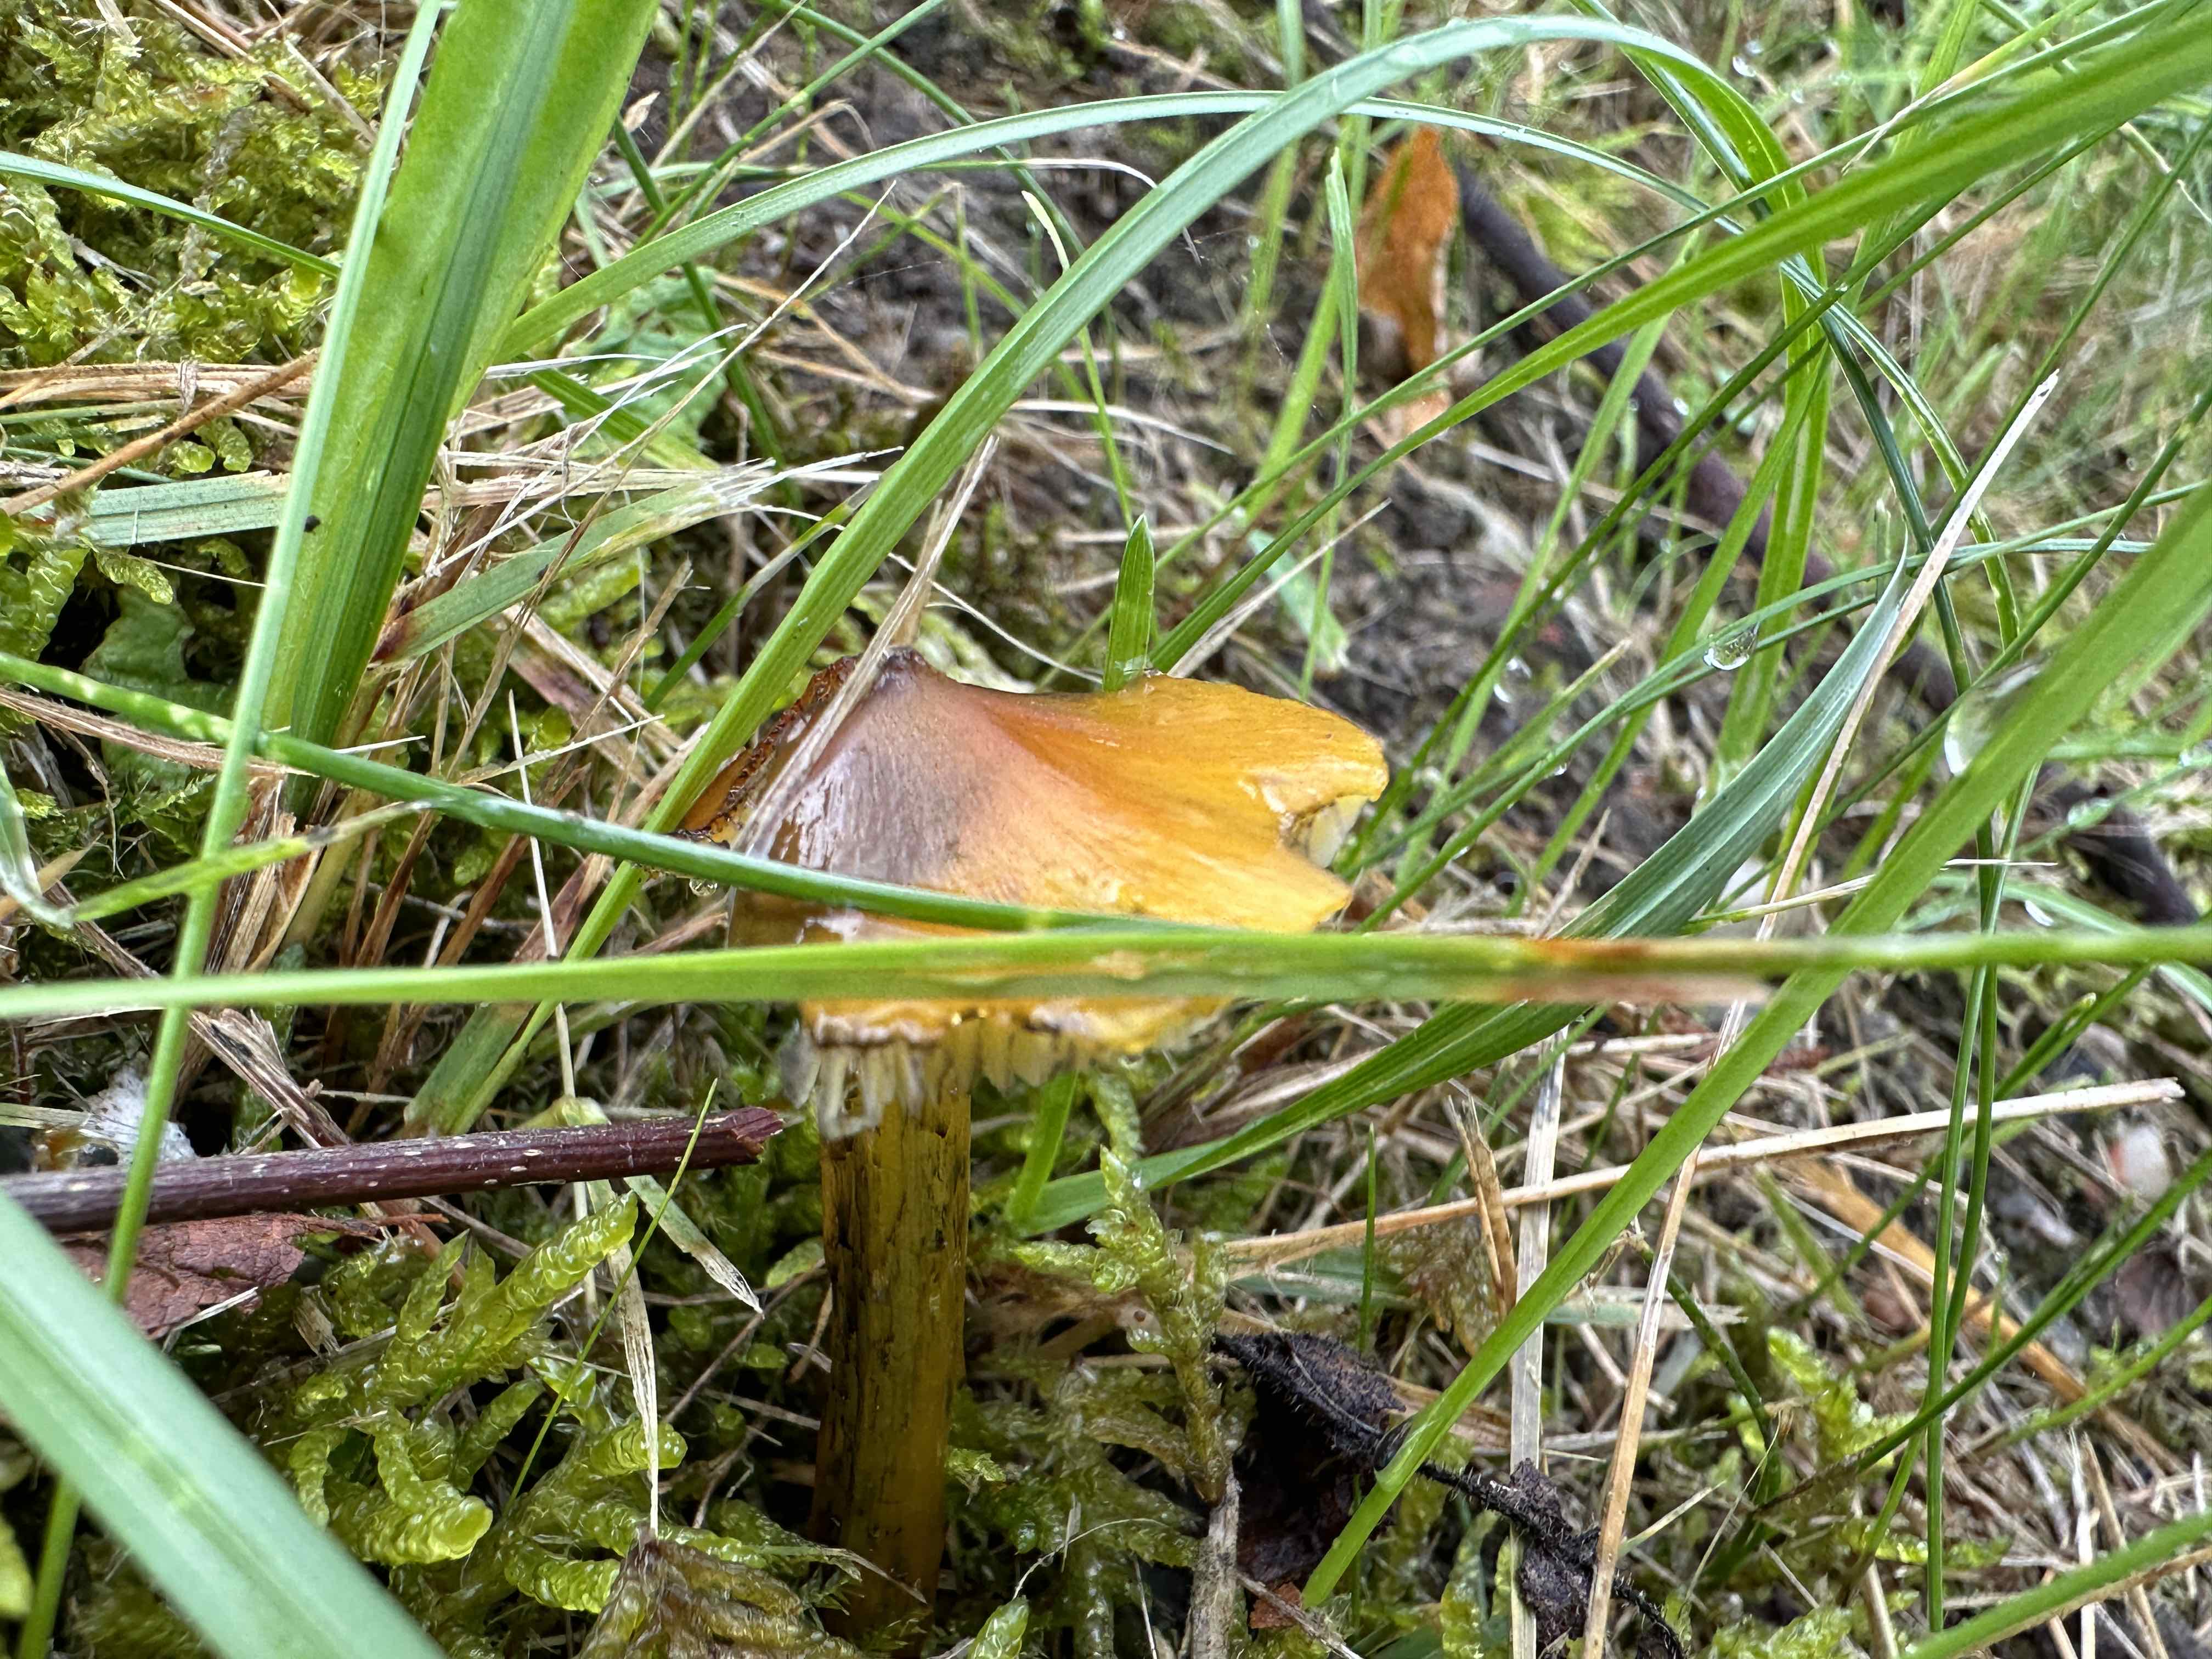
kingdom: Fungi
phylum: Basidiomycota
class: Agaricomycetes
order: Agaricales
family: Hygrophoraceae
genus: Hygrocybe
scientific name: Hygrocybe conica
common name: kegle-vokshat
